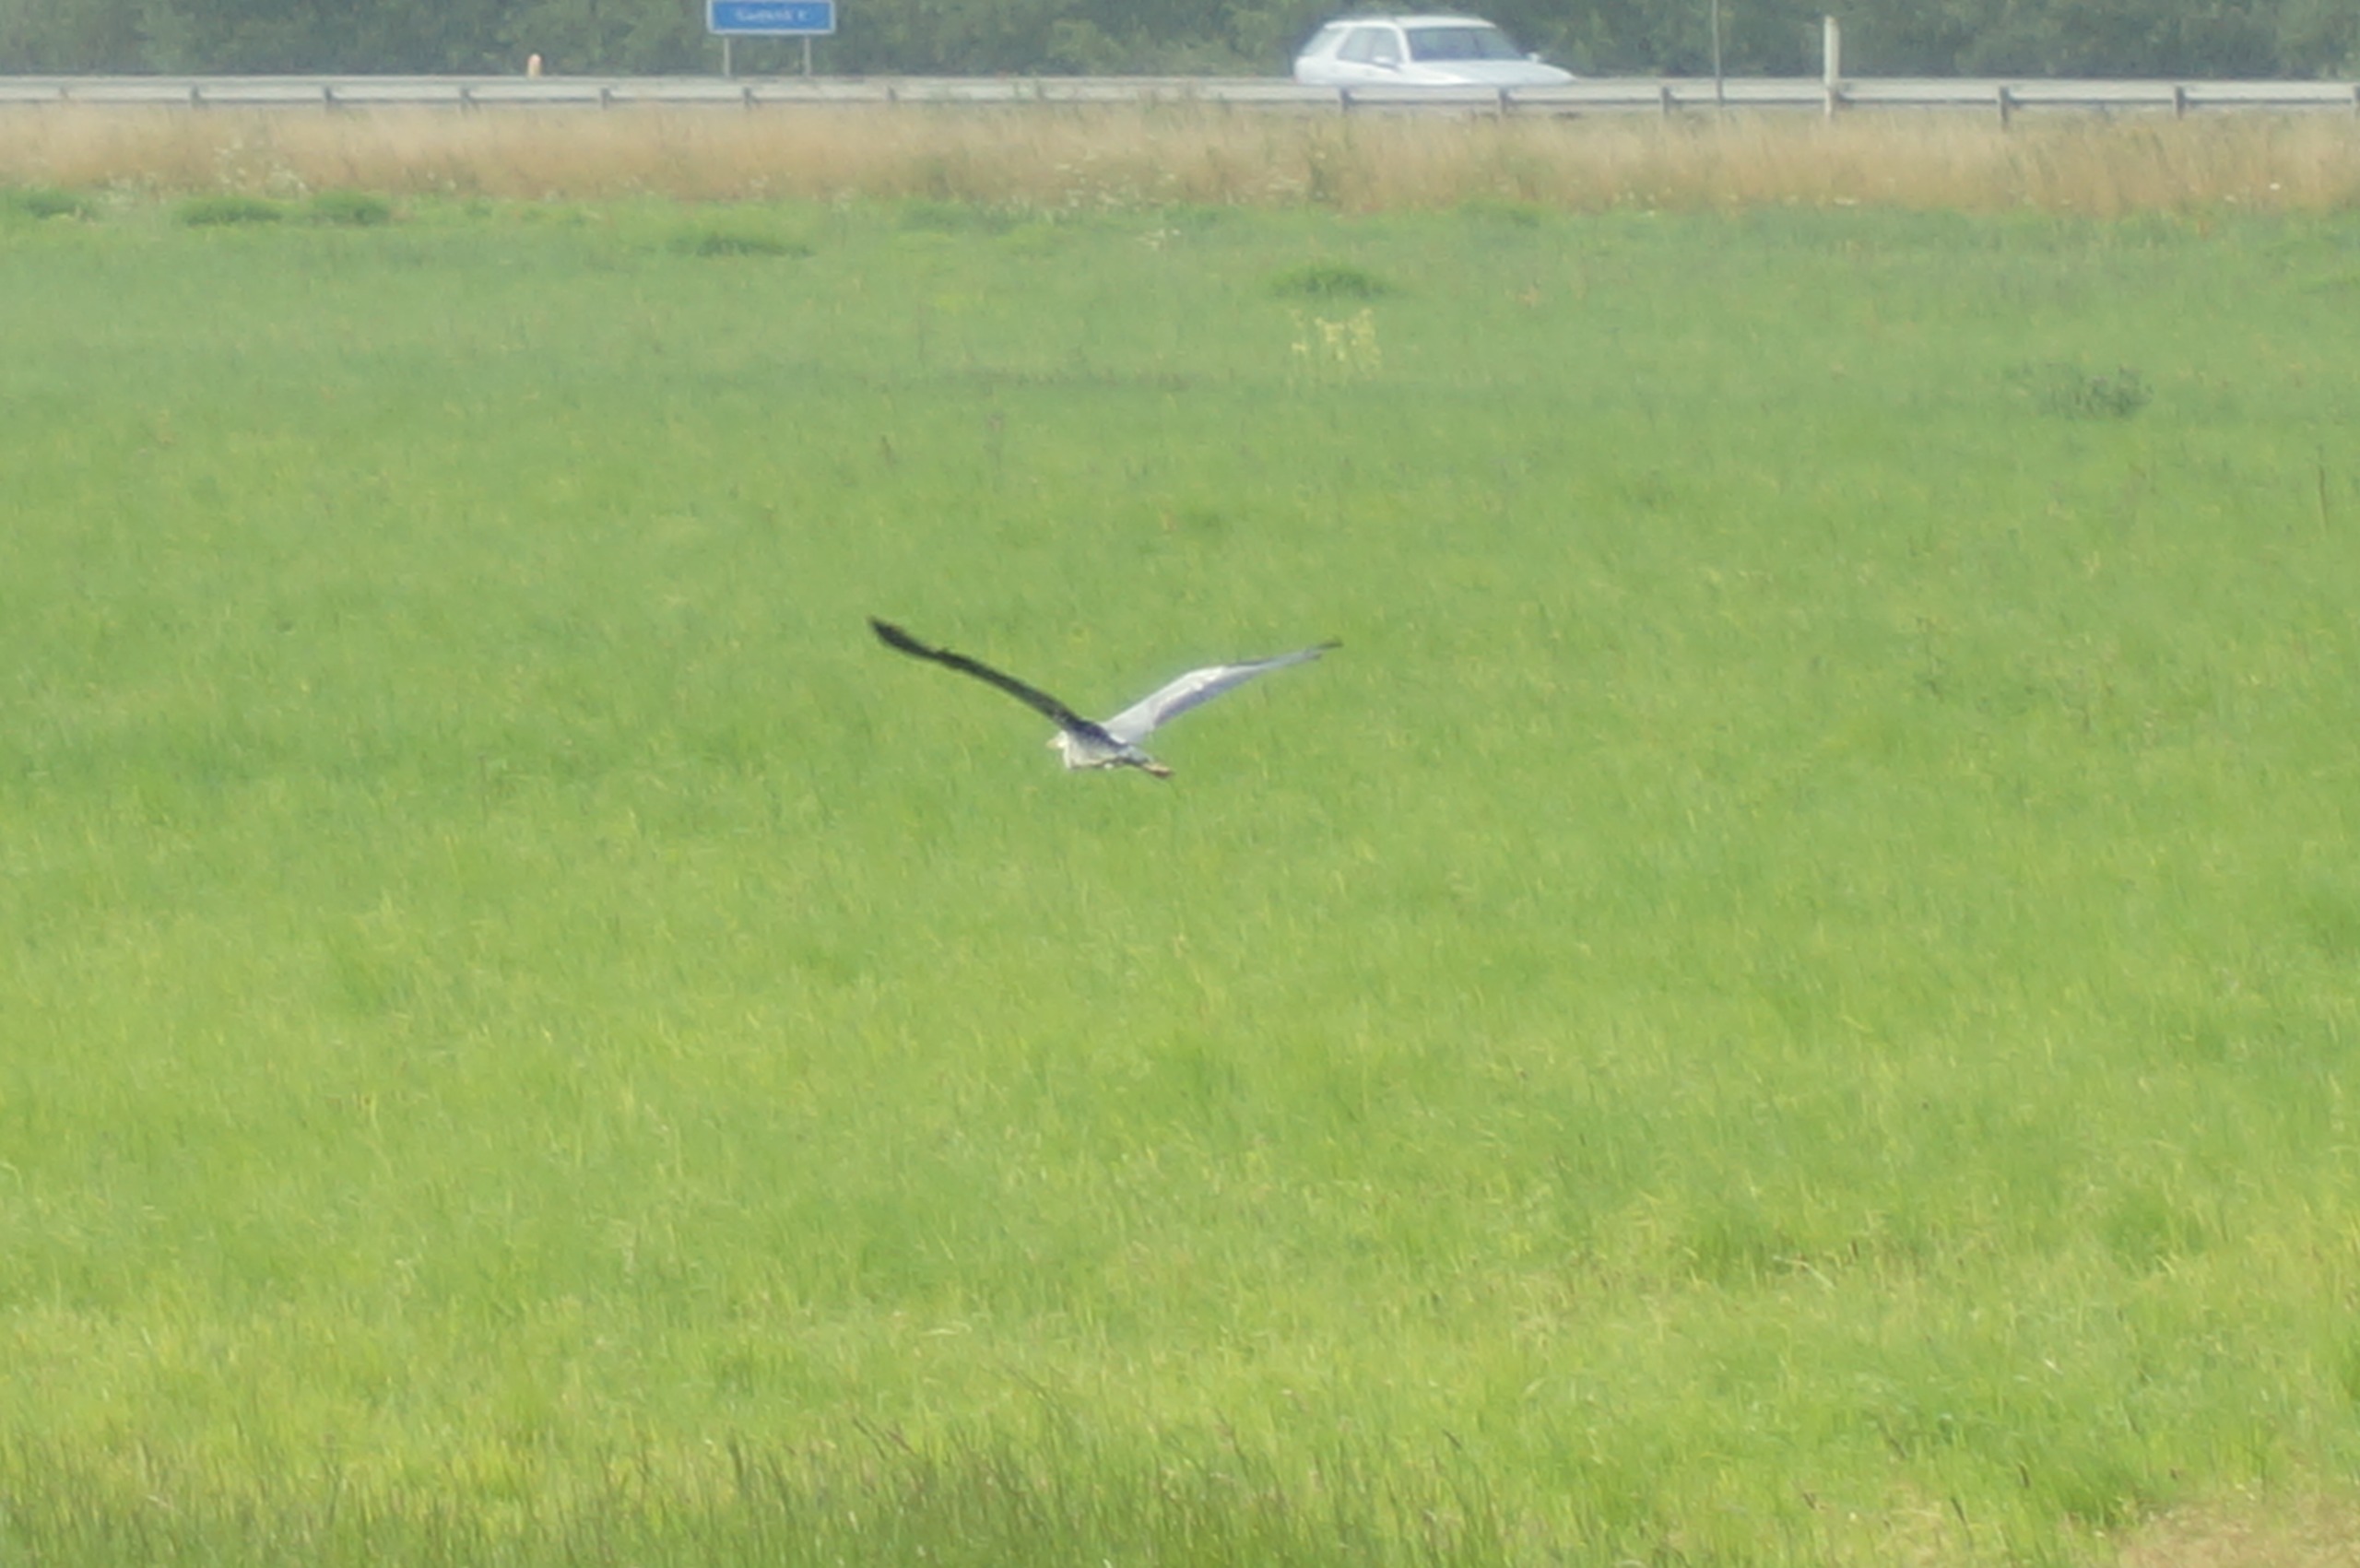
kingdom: Animalia
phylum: Chordata
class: Aves
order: Pelecaniformes
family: Ardeidae
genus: Ardea
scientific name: Ardea cinerea
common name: Fiskehejre
